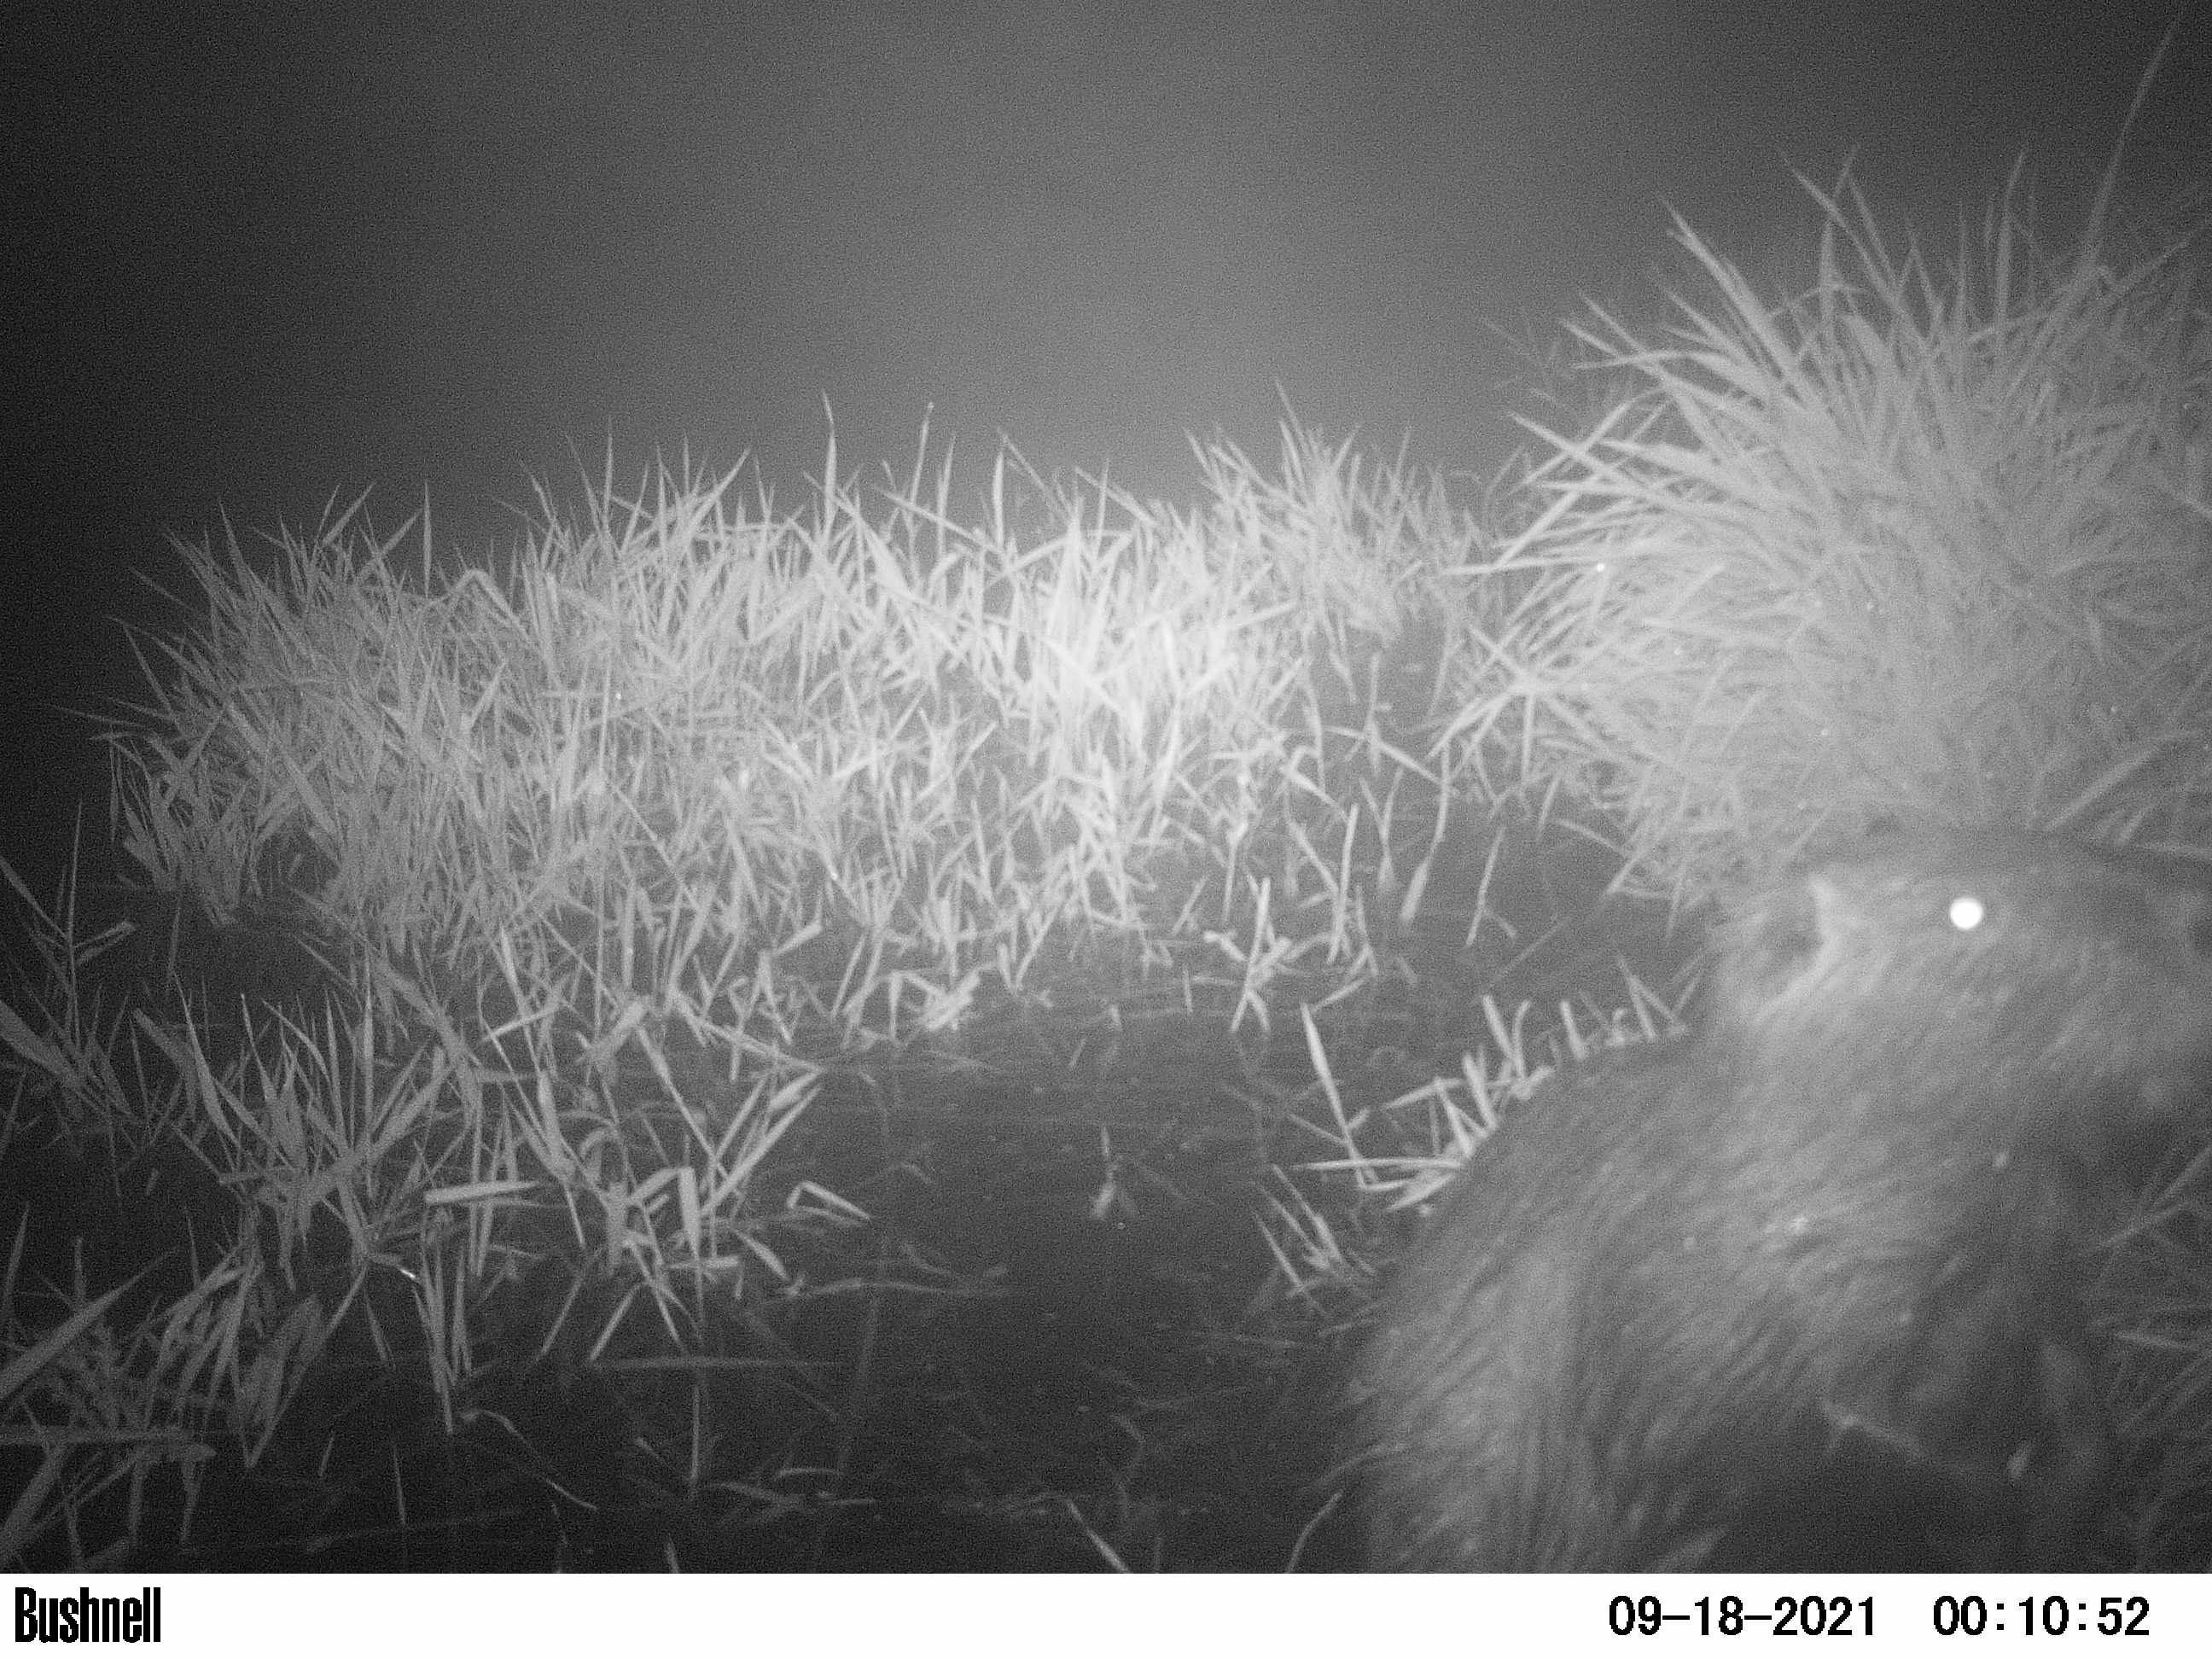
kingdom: Animalia
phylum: Chordata
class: Mammalia
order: Rodentia
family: Myocastoridae
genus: Myocastor
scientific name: Myocastor coypus
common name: Coypu
